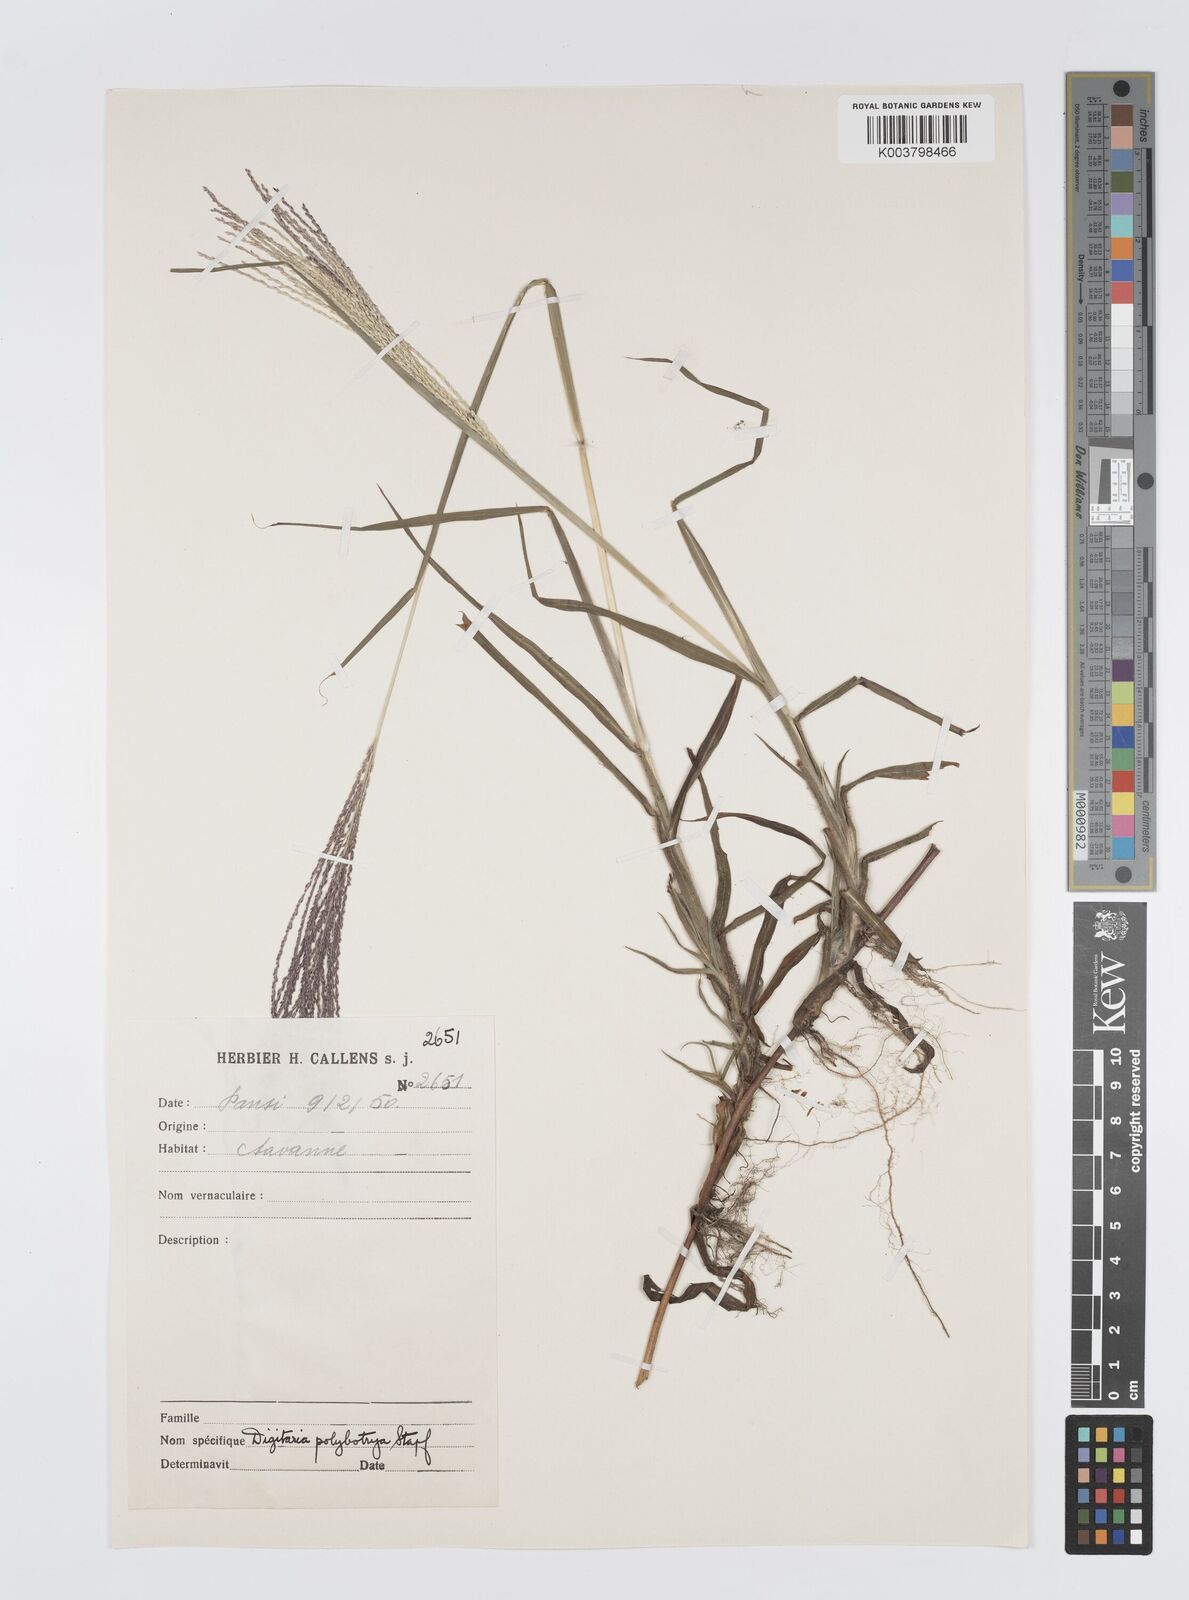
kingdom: Plantae
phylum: Tracheophyta
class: Liliopsida
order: Poales
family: Poaceae
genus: Digitaria
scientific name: Digitaria leptorhachis
